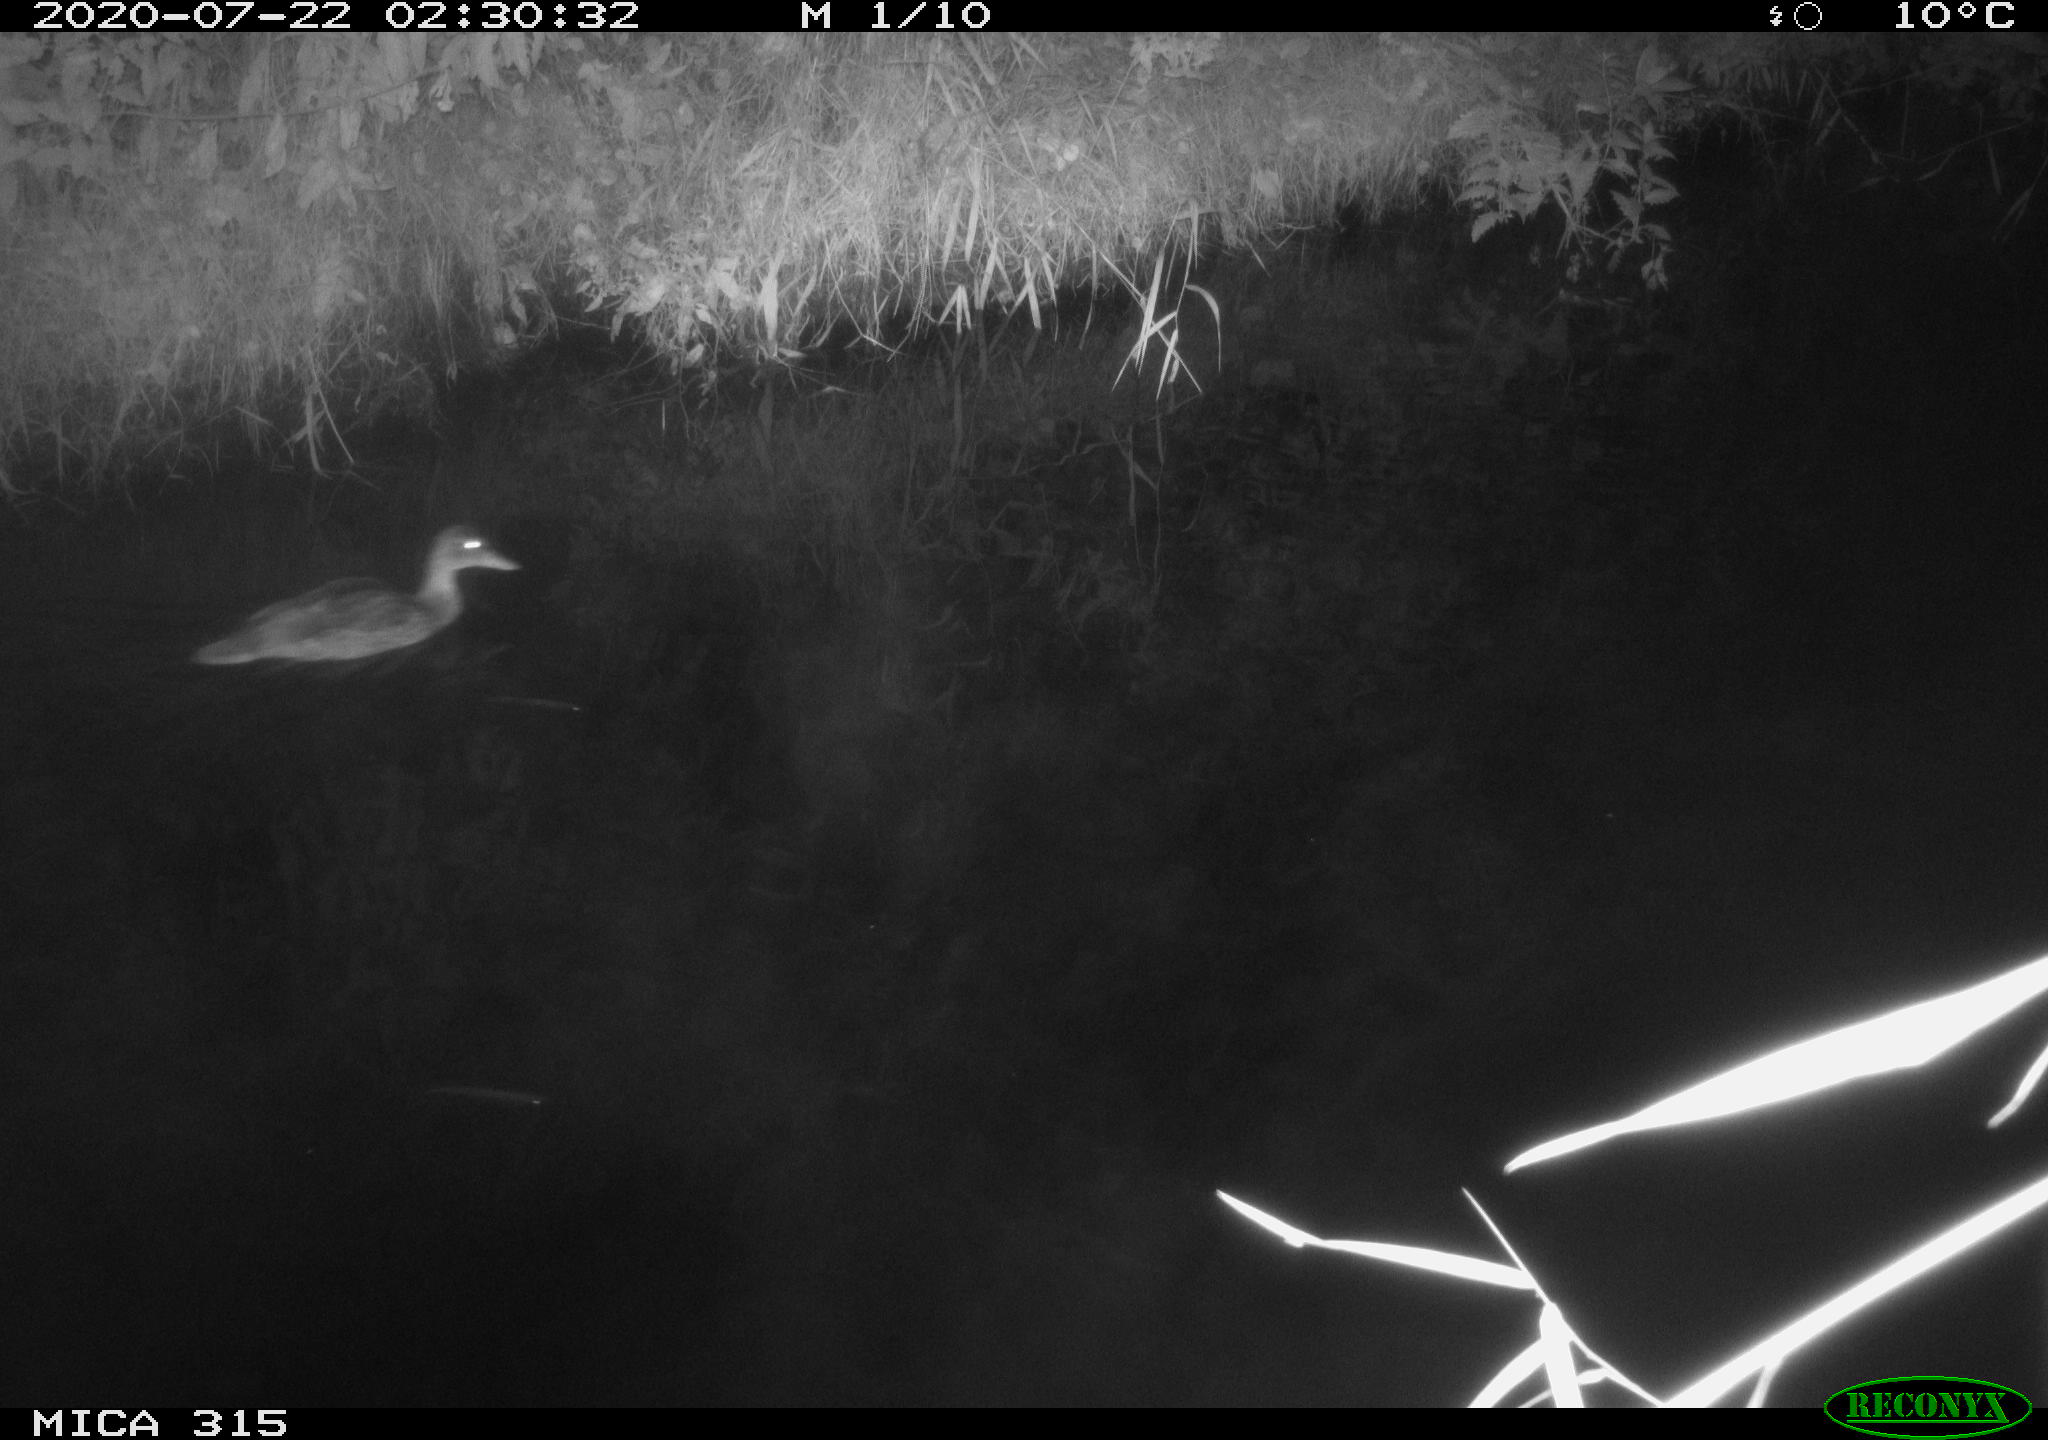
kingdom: Animalia
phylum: Chordata
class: Aves
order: Anseriformes
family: Anatidae
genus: Anas
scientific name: Anas platyrhynchos
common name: Mallard
